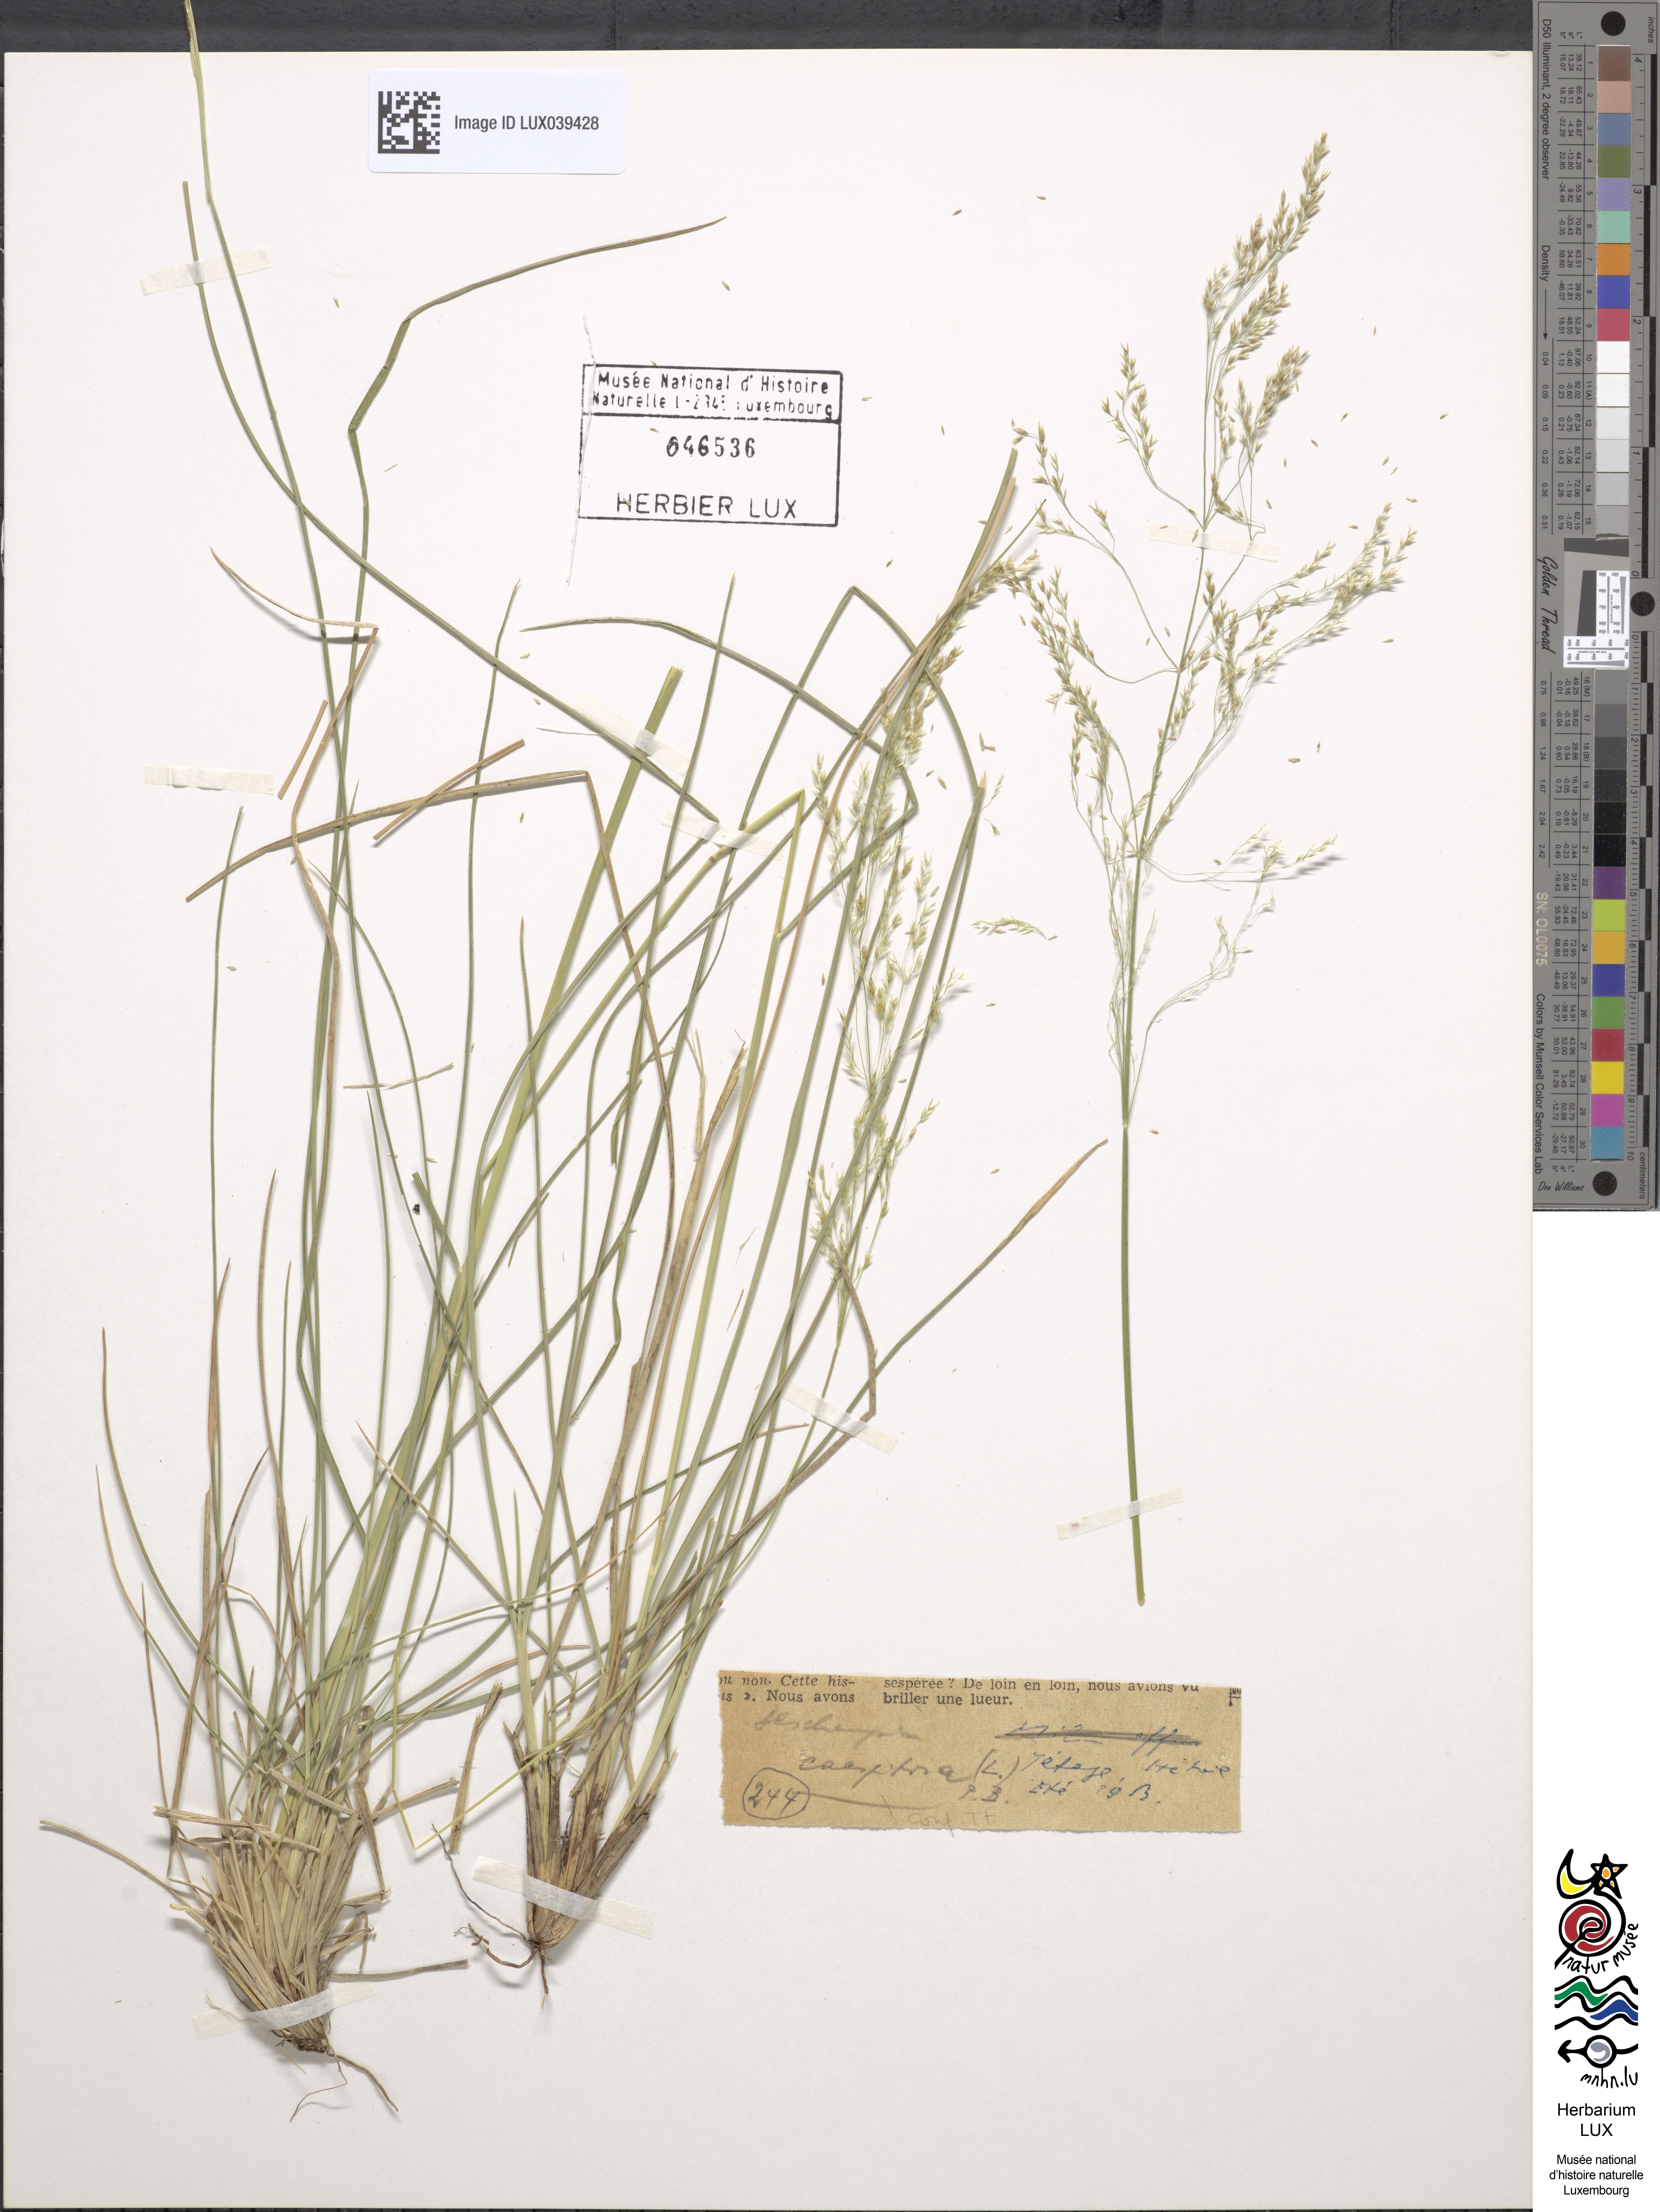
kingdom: Plantae
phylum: Tracheophyta
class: Liliopsida
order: Poales
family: Poaceae
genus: Deschampsia
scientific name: Deschampsia cespitosa
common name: Tufted hair-grass
